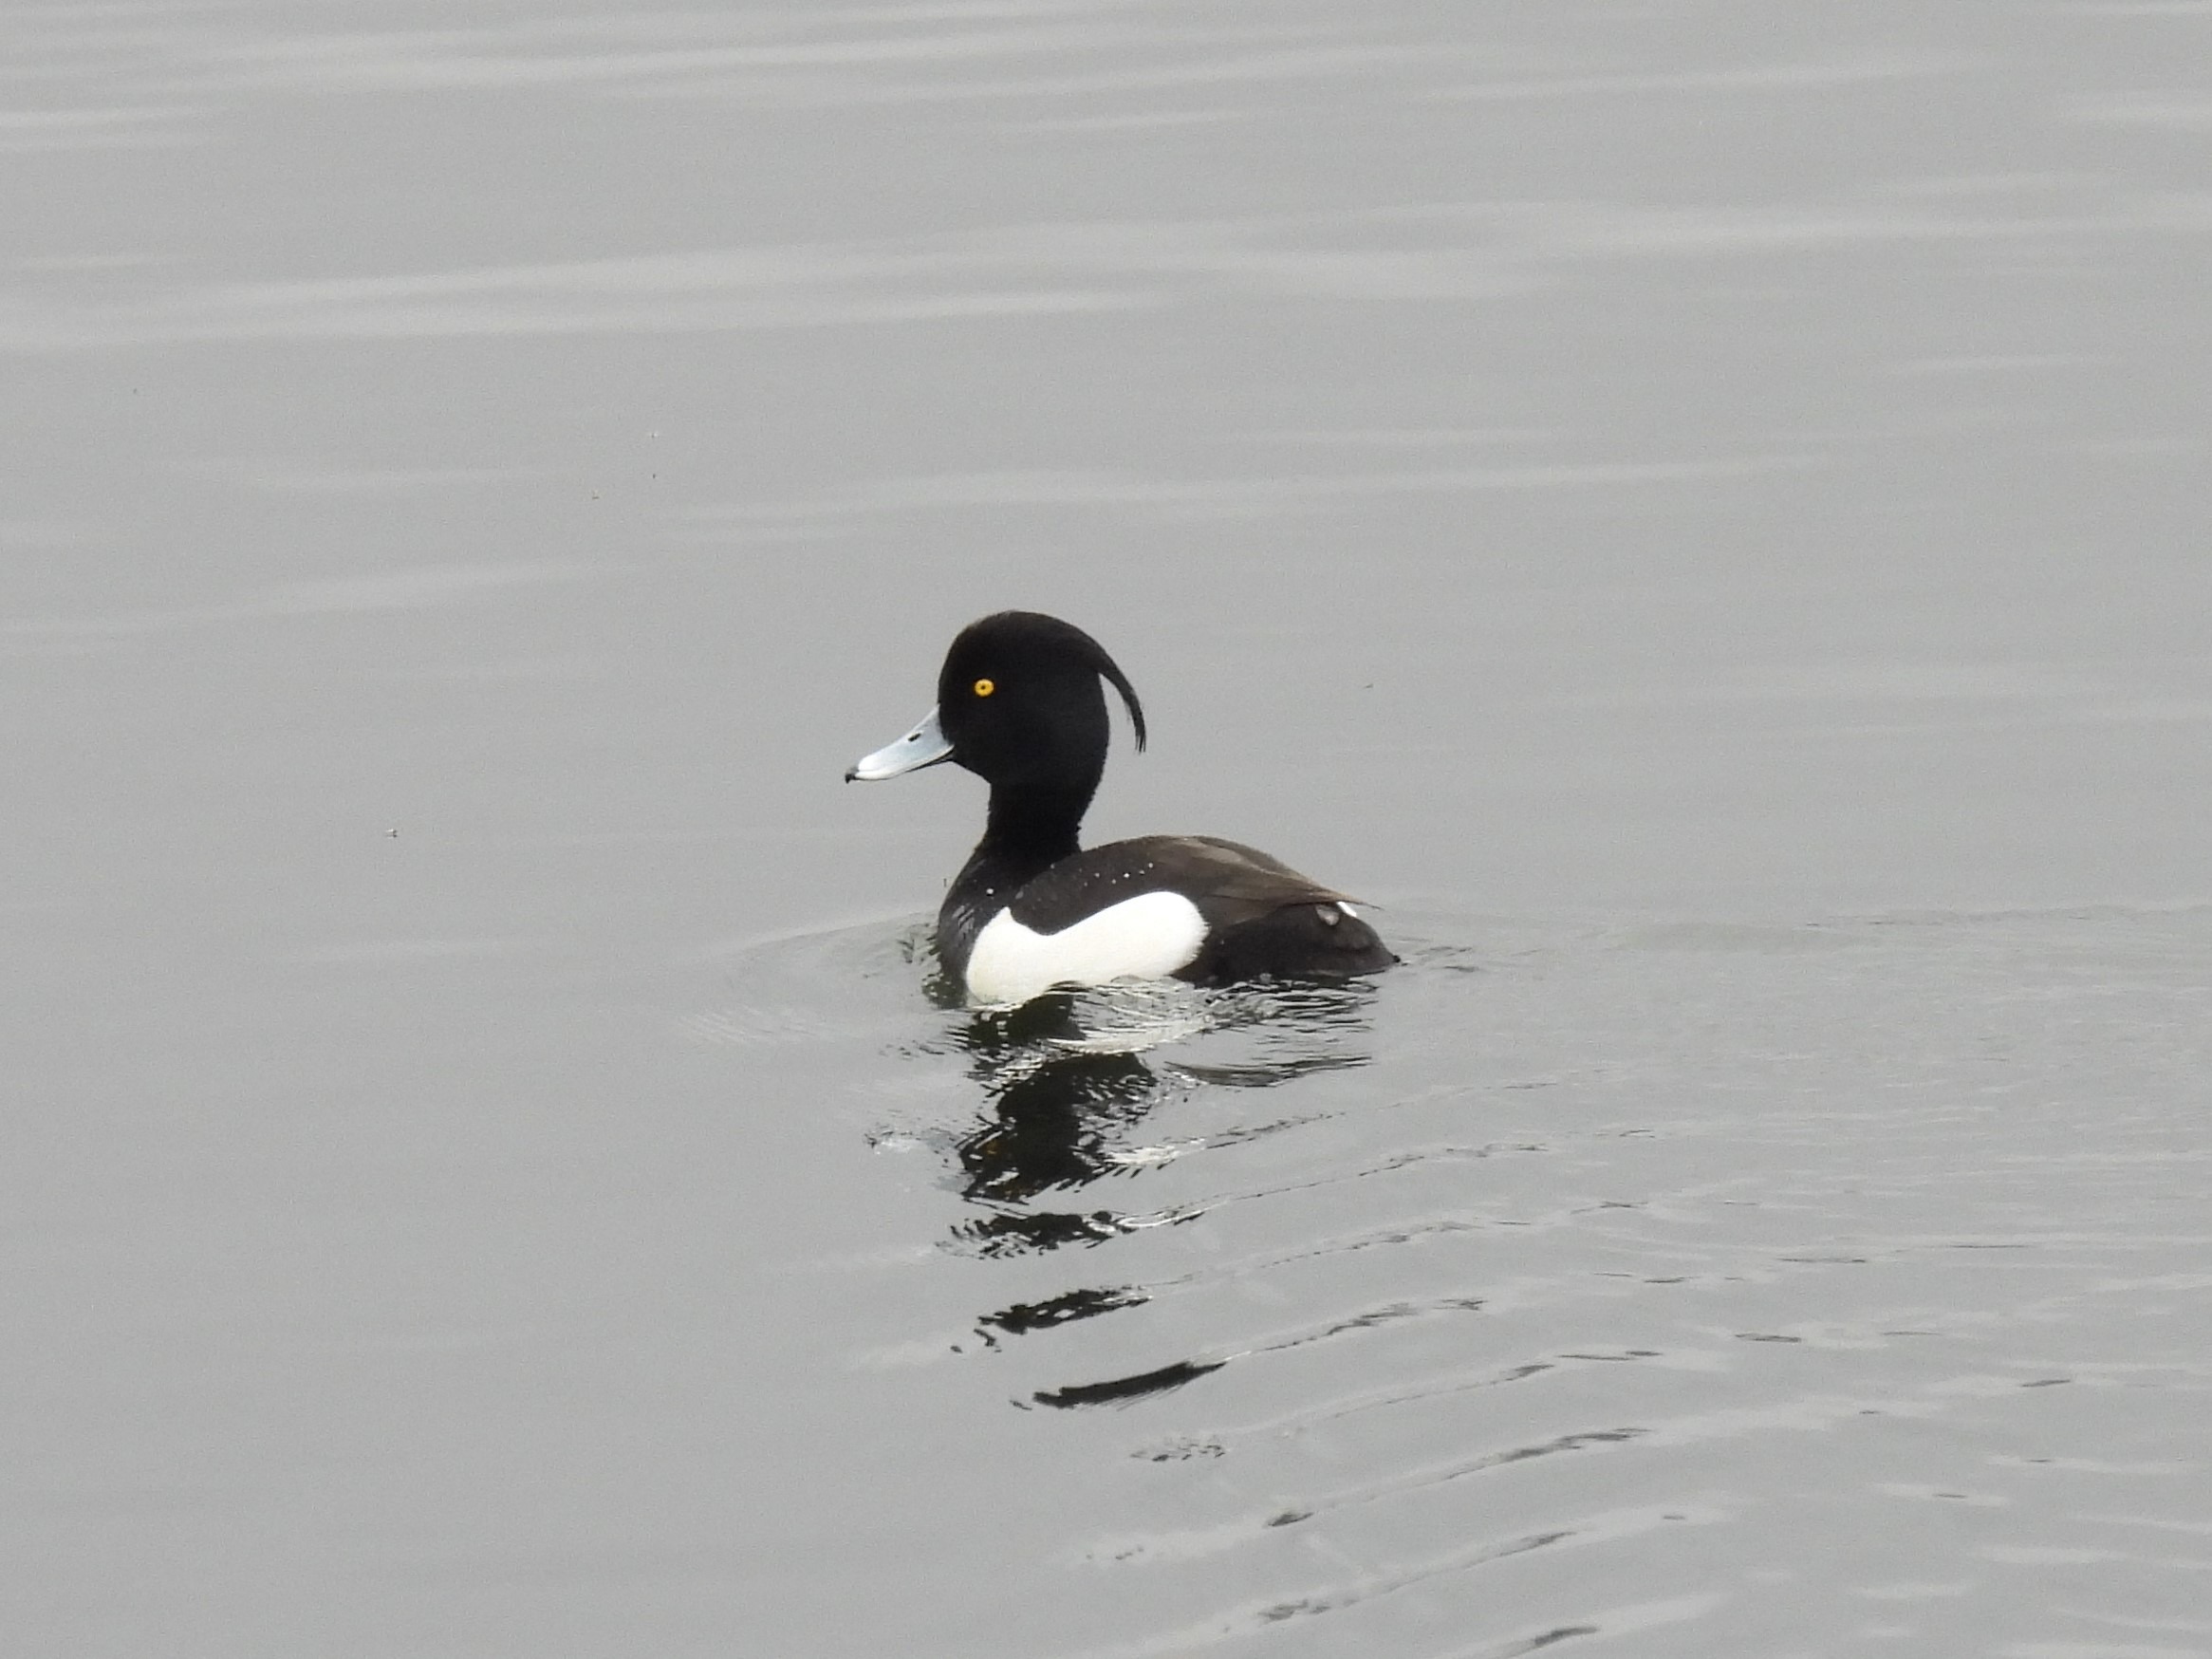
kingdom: Animalia
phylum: Chordata
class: Aves
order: Anseriformes
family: Anatidae
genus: Aythya
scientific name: Aythya fuligula
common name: Troldand
